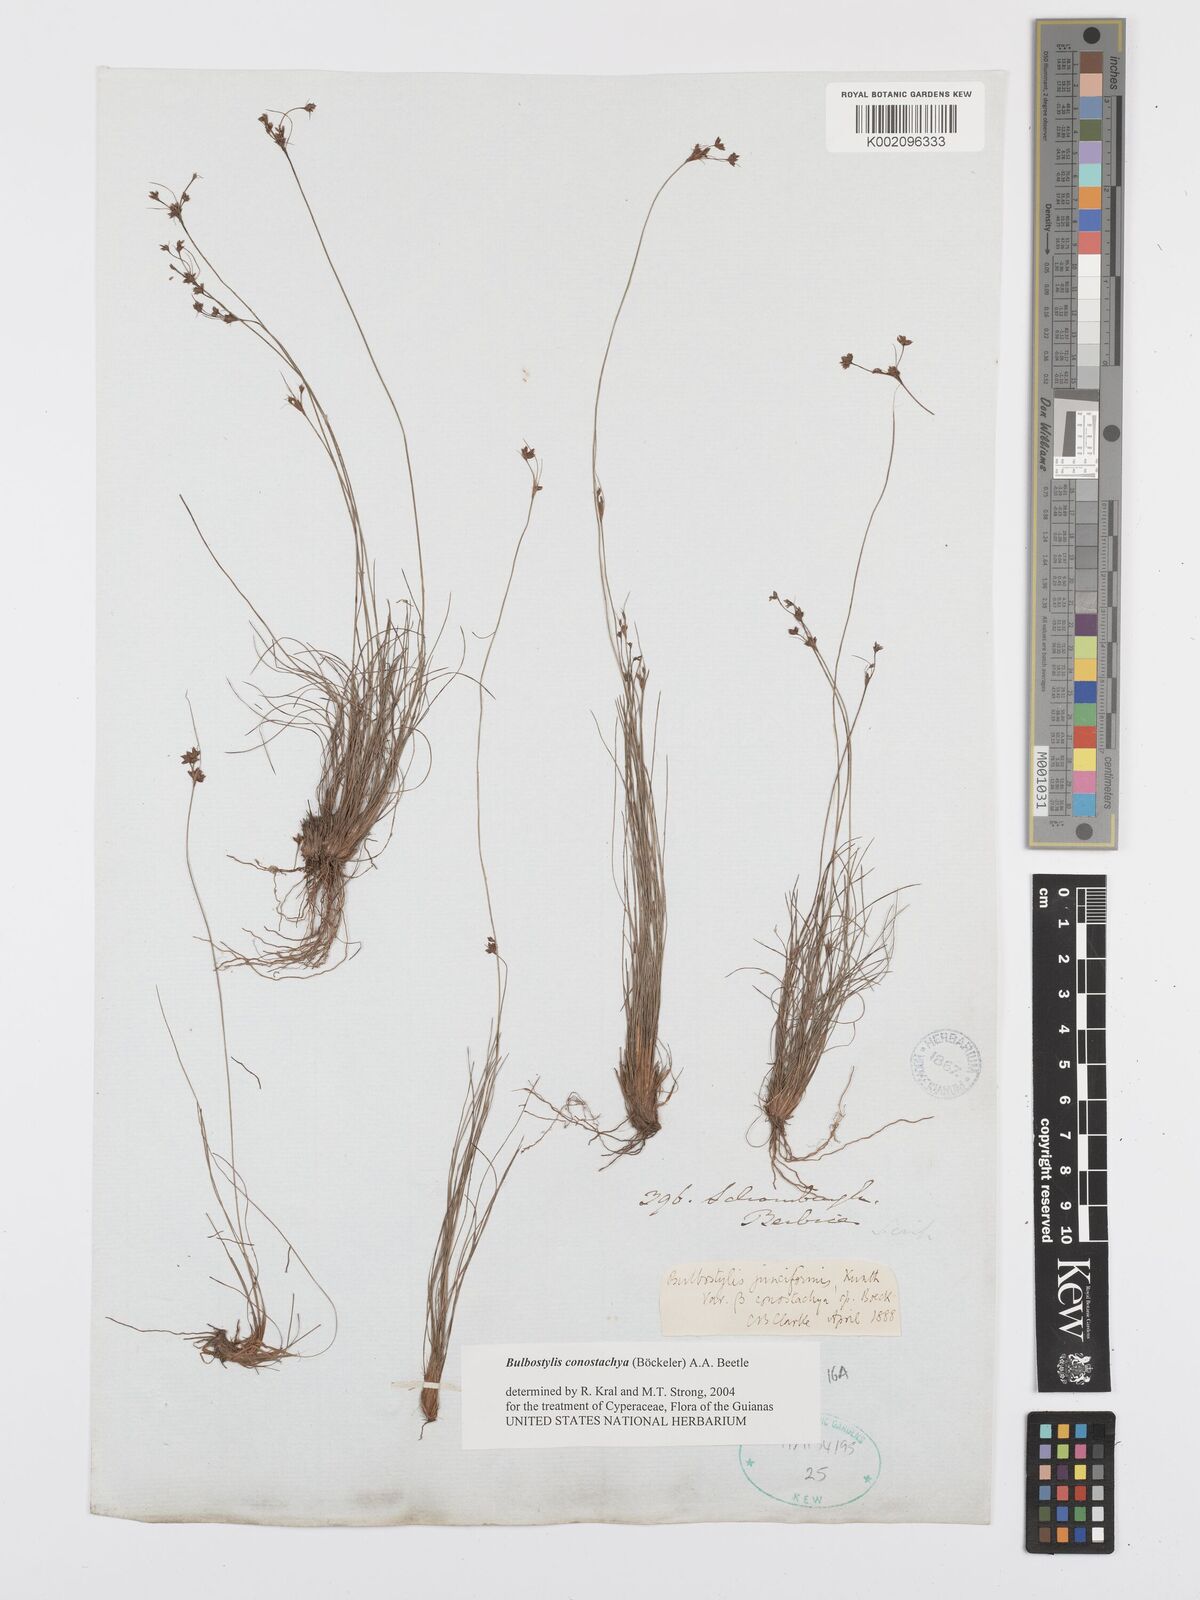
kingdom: Plantae
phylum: Tracheophyta
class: Liliopsida
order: Poales
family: Cyperaceae
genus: Bulbostylis
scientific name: Bulbostylis conostachya
